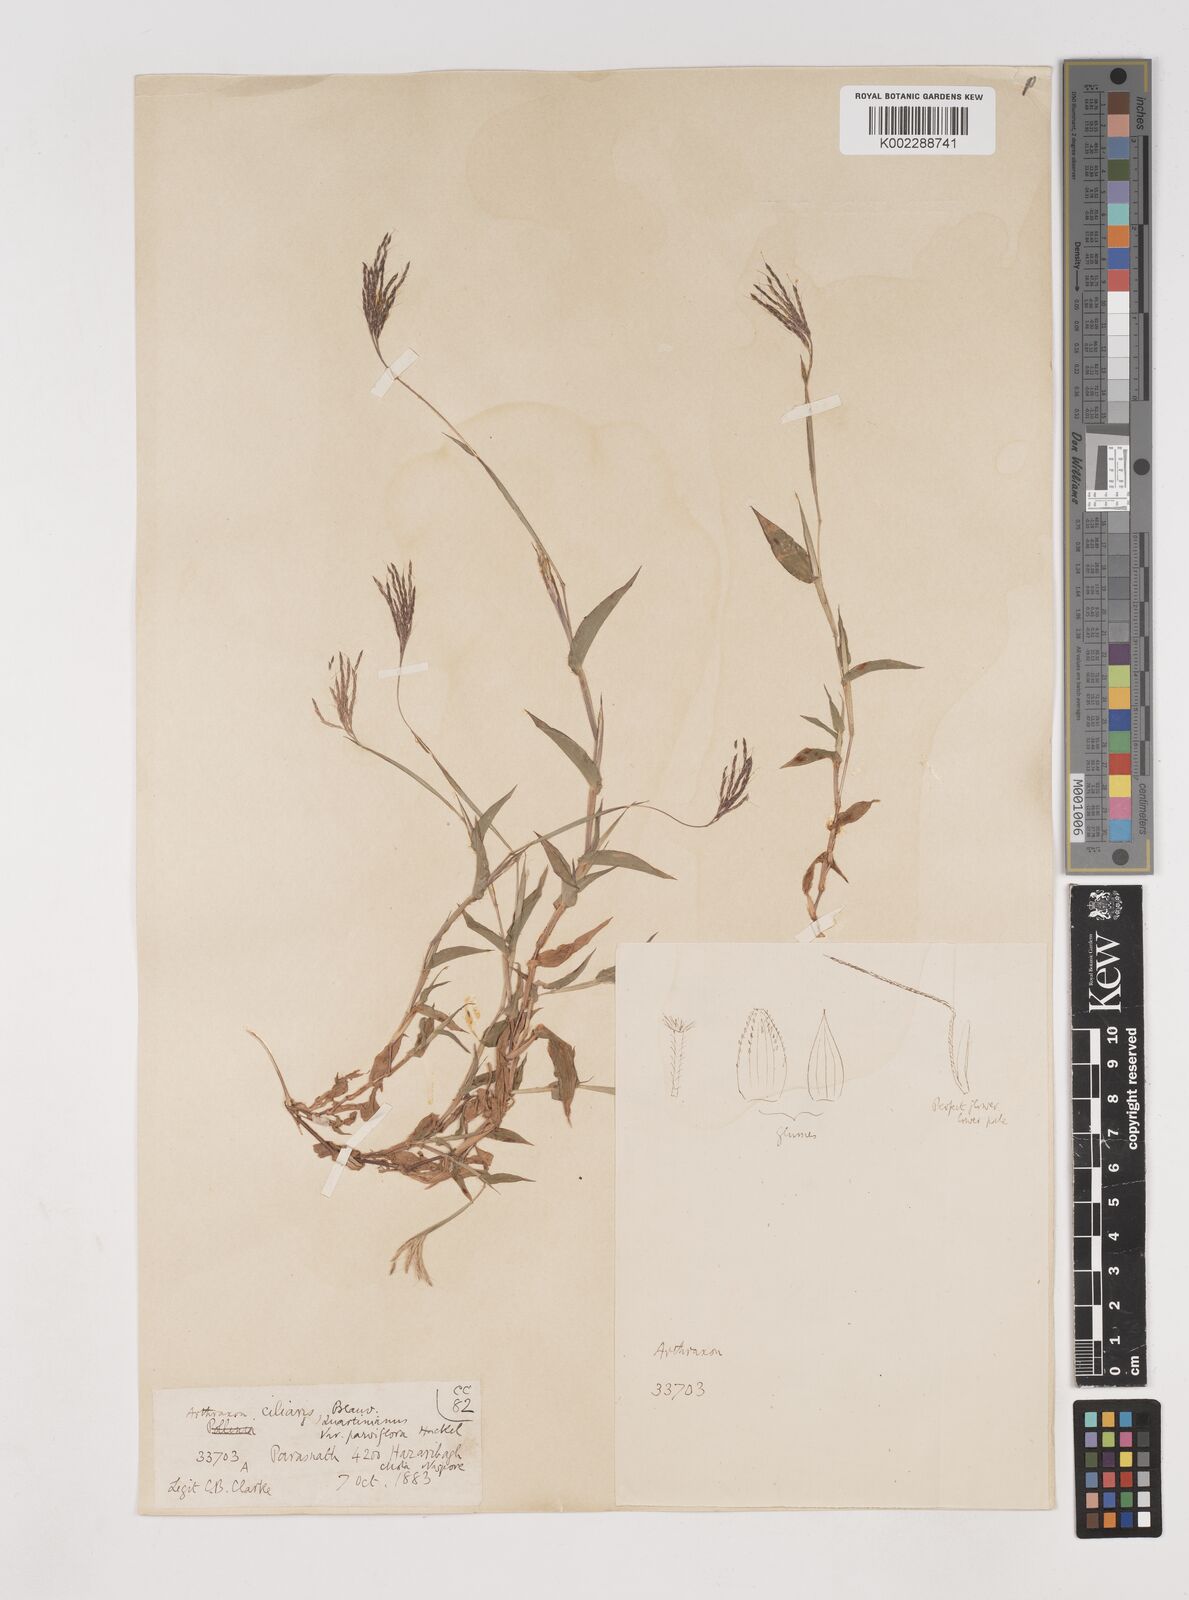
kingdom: Plantae
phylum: Tracheophyta
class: Liliopsida
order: Poales
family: Poaceae
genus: Arthraxon
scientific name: Arthraxon hispidus
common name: Small carpgrass
